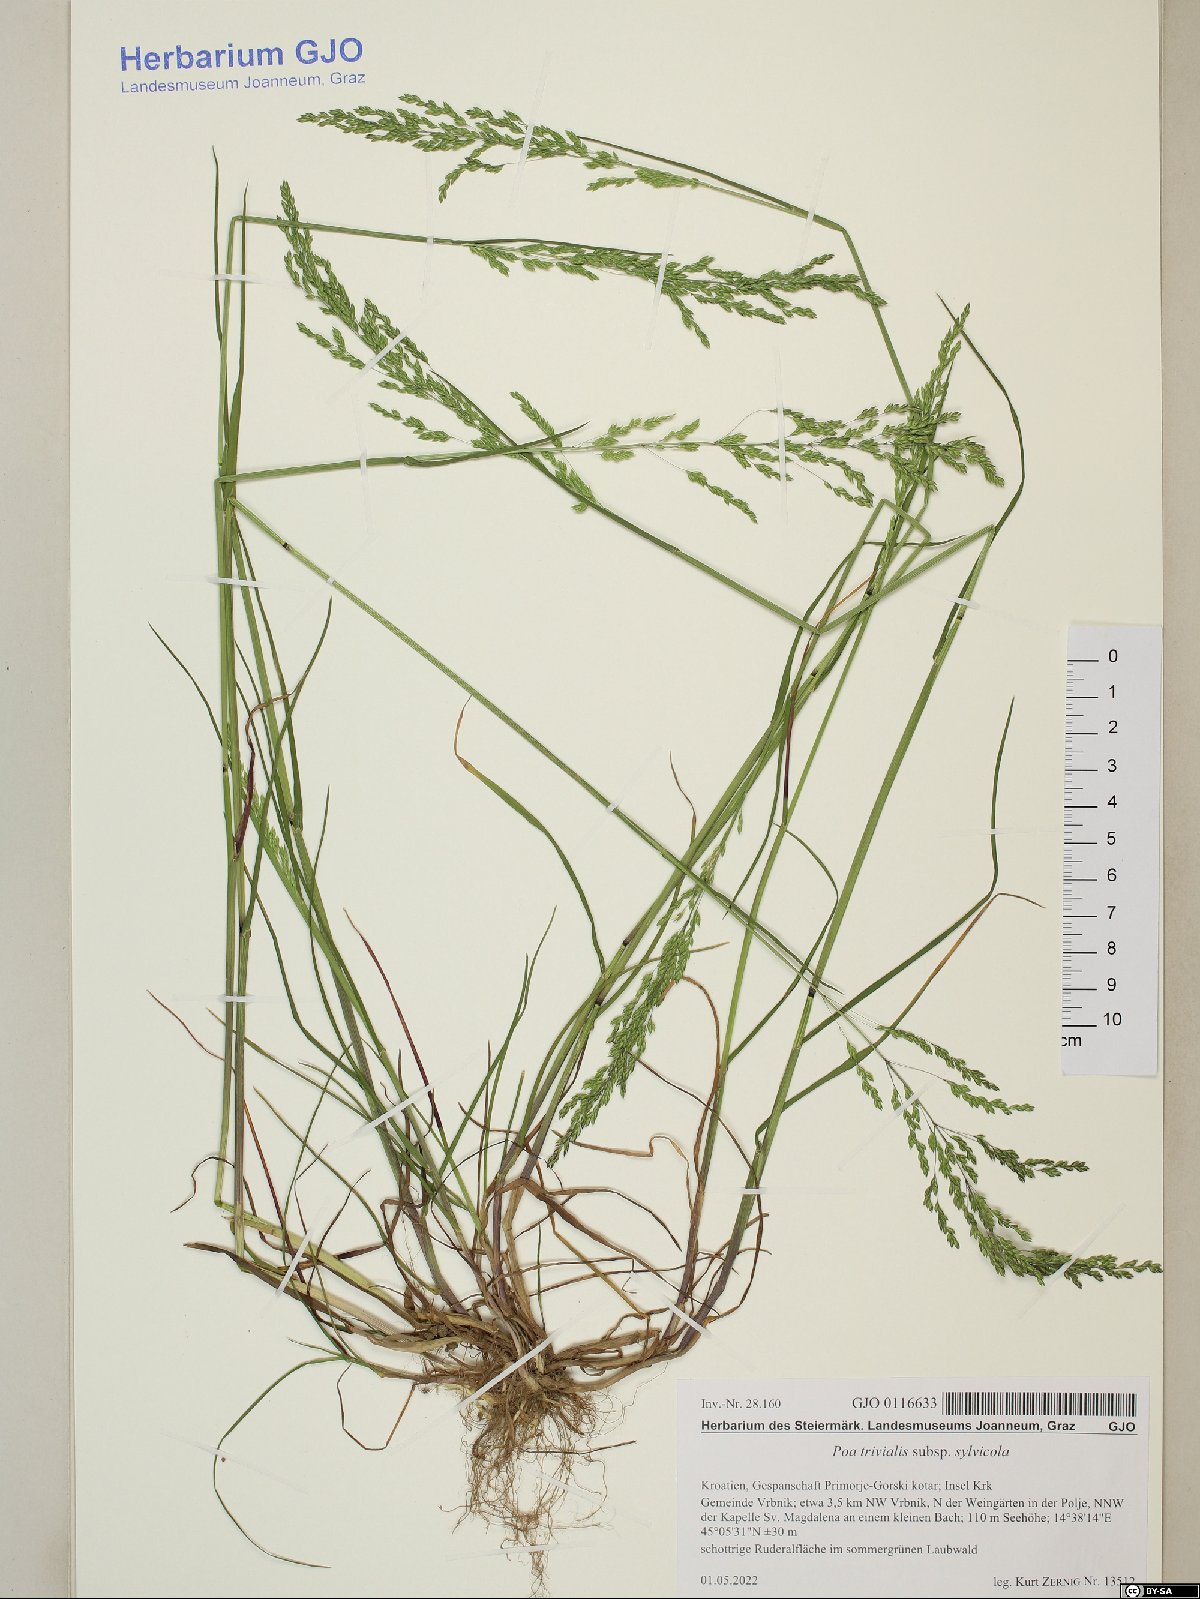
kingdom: Plantae
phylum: Tracheophyta
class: Liliopsida
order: Poales
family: Poaceae
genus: Poa
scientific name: Poa trivialis
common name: Rough bluegrass
